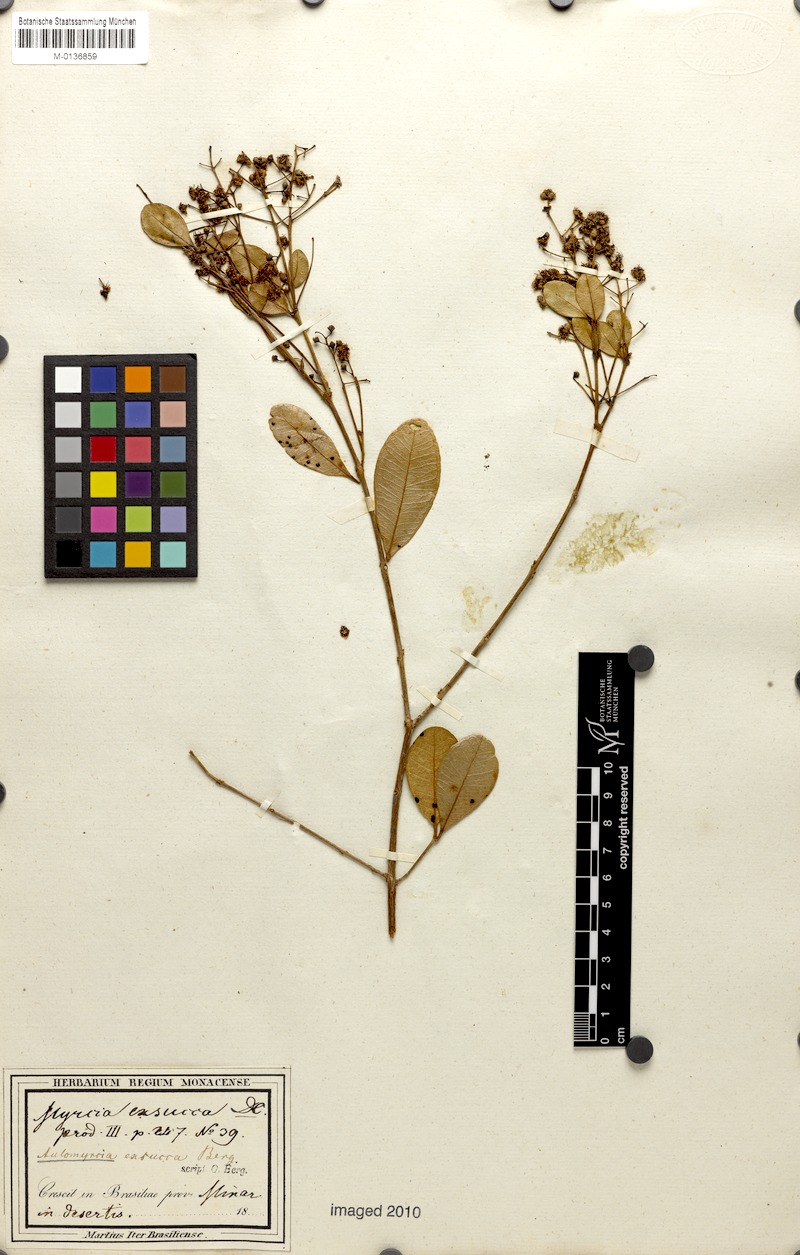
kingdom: Plantae
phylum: Tracheophyta
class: Magnoliopsida
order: Myrtales
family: Myrtaceae
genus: Myrcia
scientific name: Myrcia guianensis
